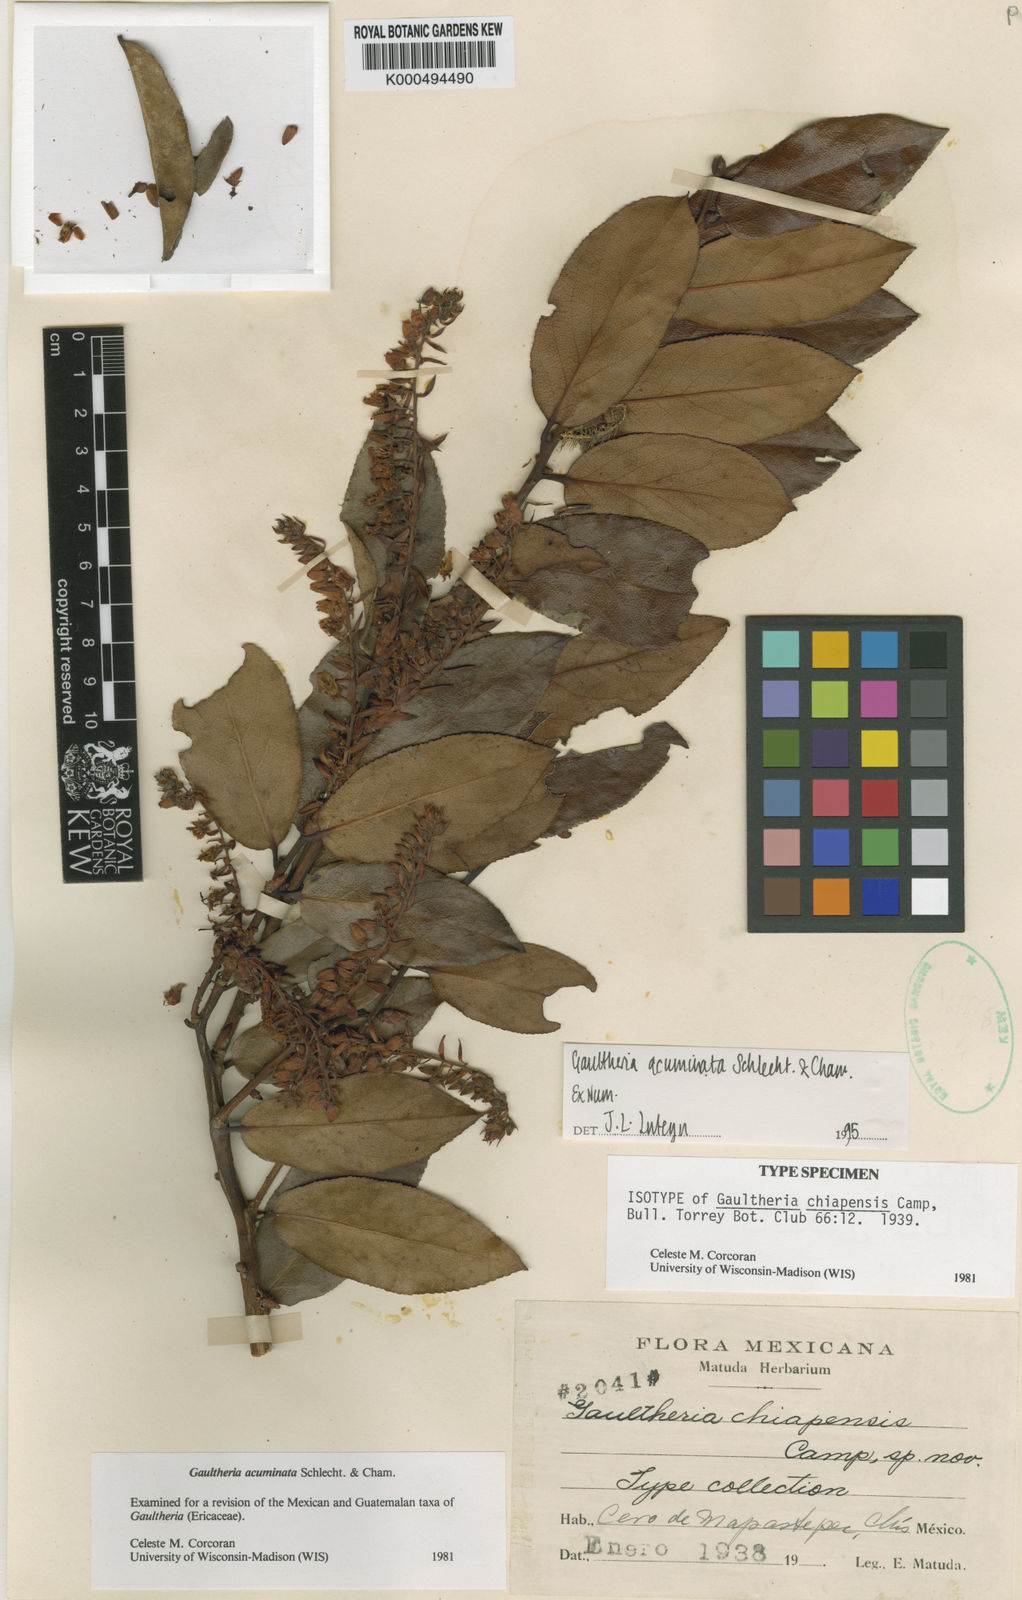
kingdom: Plantae
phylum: Tracheophyta
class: Magnoliopsida
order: Ericales
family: Ericaceae
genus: Gaultheria
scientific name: Gaultheria acuminata
